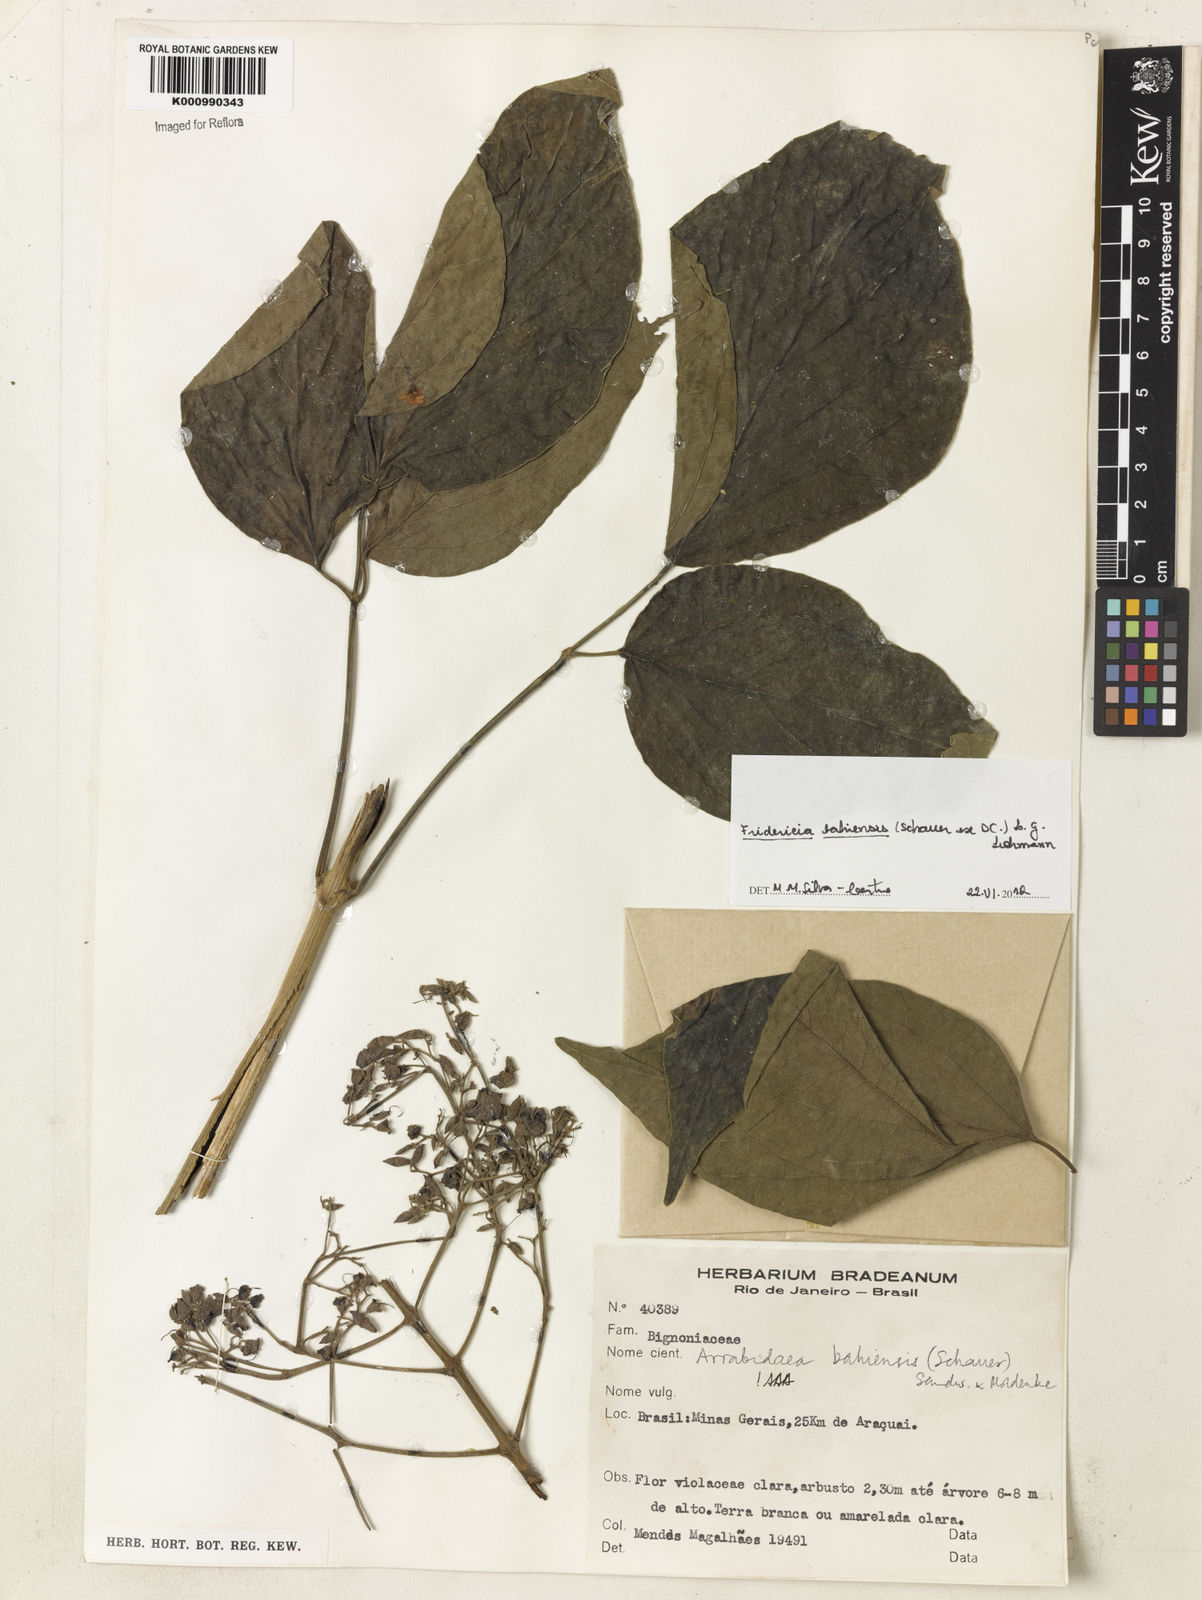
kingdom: Plantae
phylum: Tracheophyta
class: Magnoliopsida
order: Lamiales
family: Bignoniaceae
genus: Fridericia
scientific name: Fridericia bahiensis
